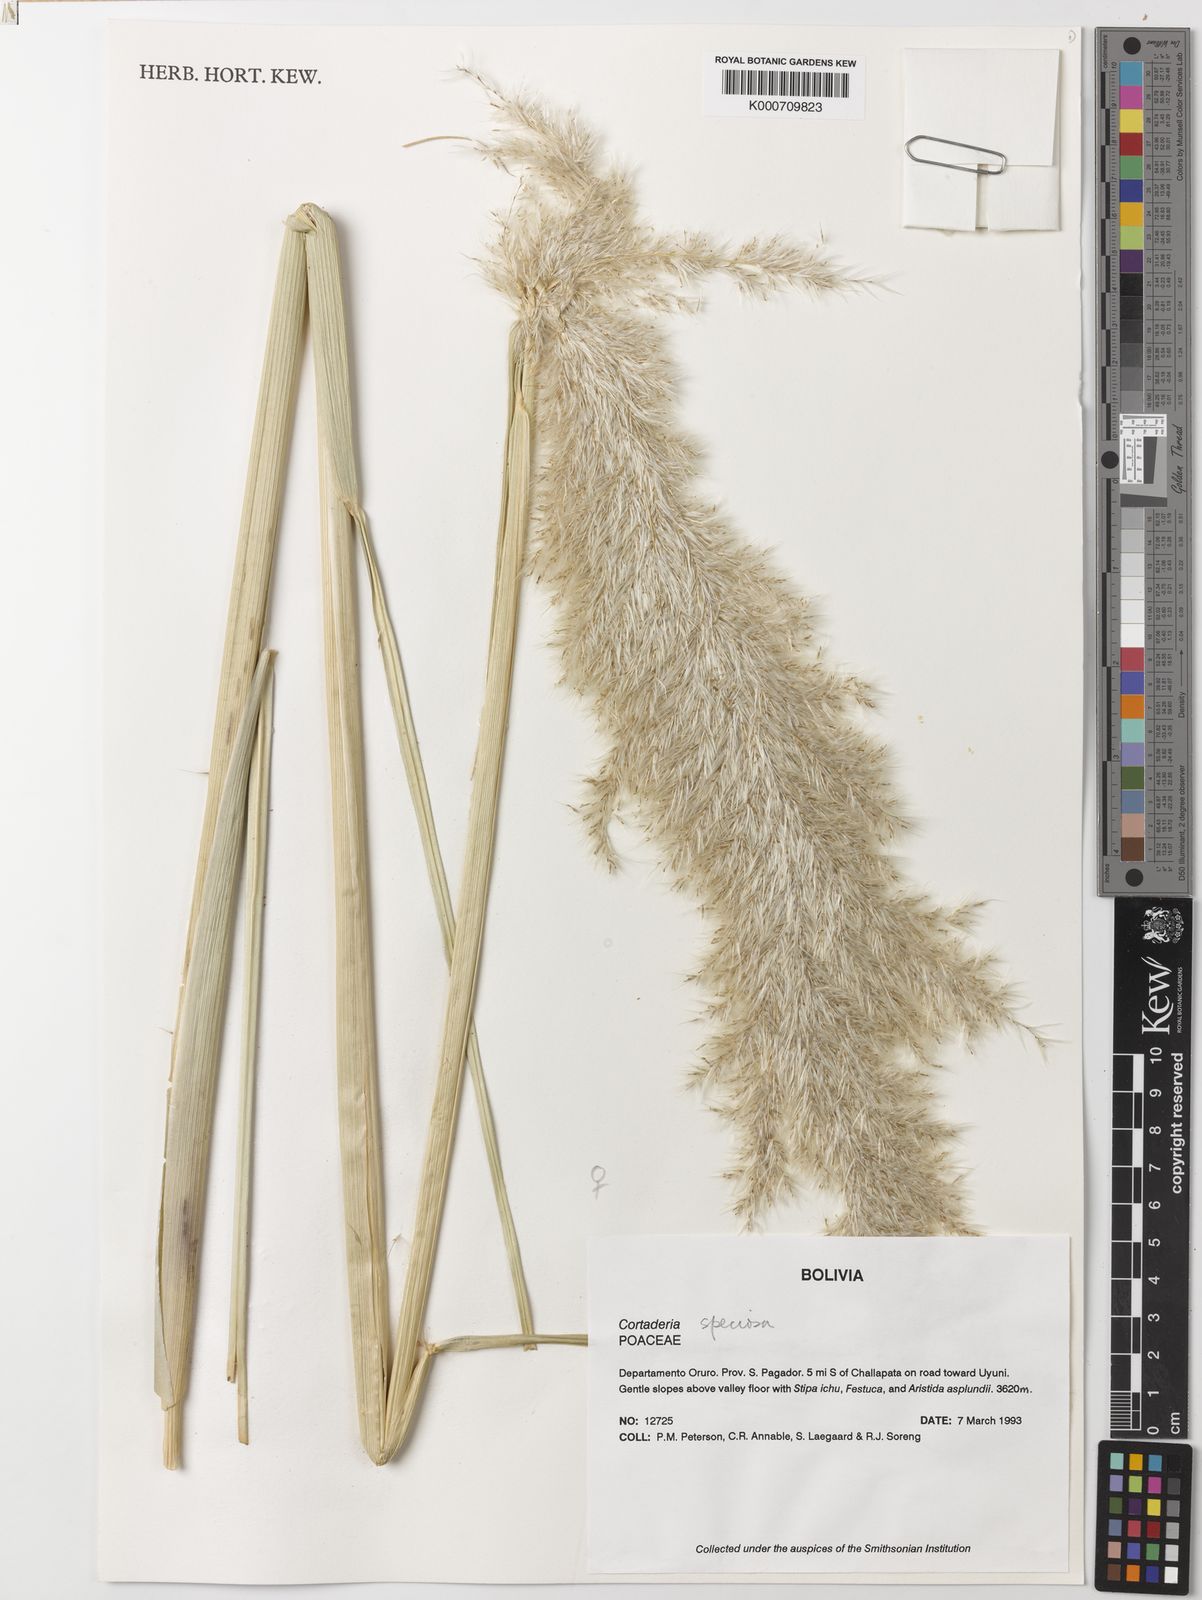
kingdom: Plantae
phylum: Tracheophyta
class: Liliopsida
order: Poales
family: Poaceae
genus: Cortaderia
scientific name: Cortaderia speciosa
